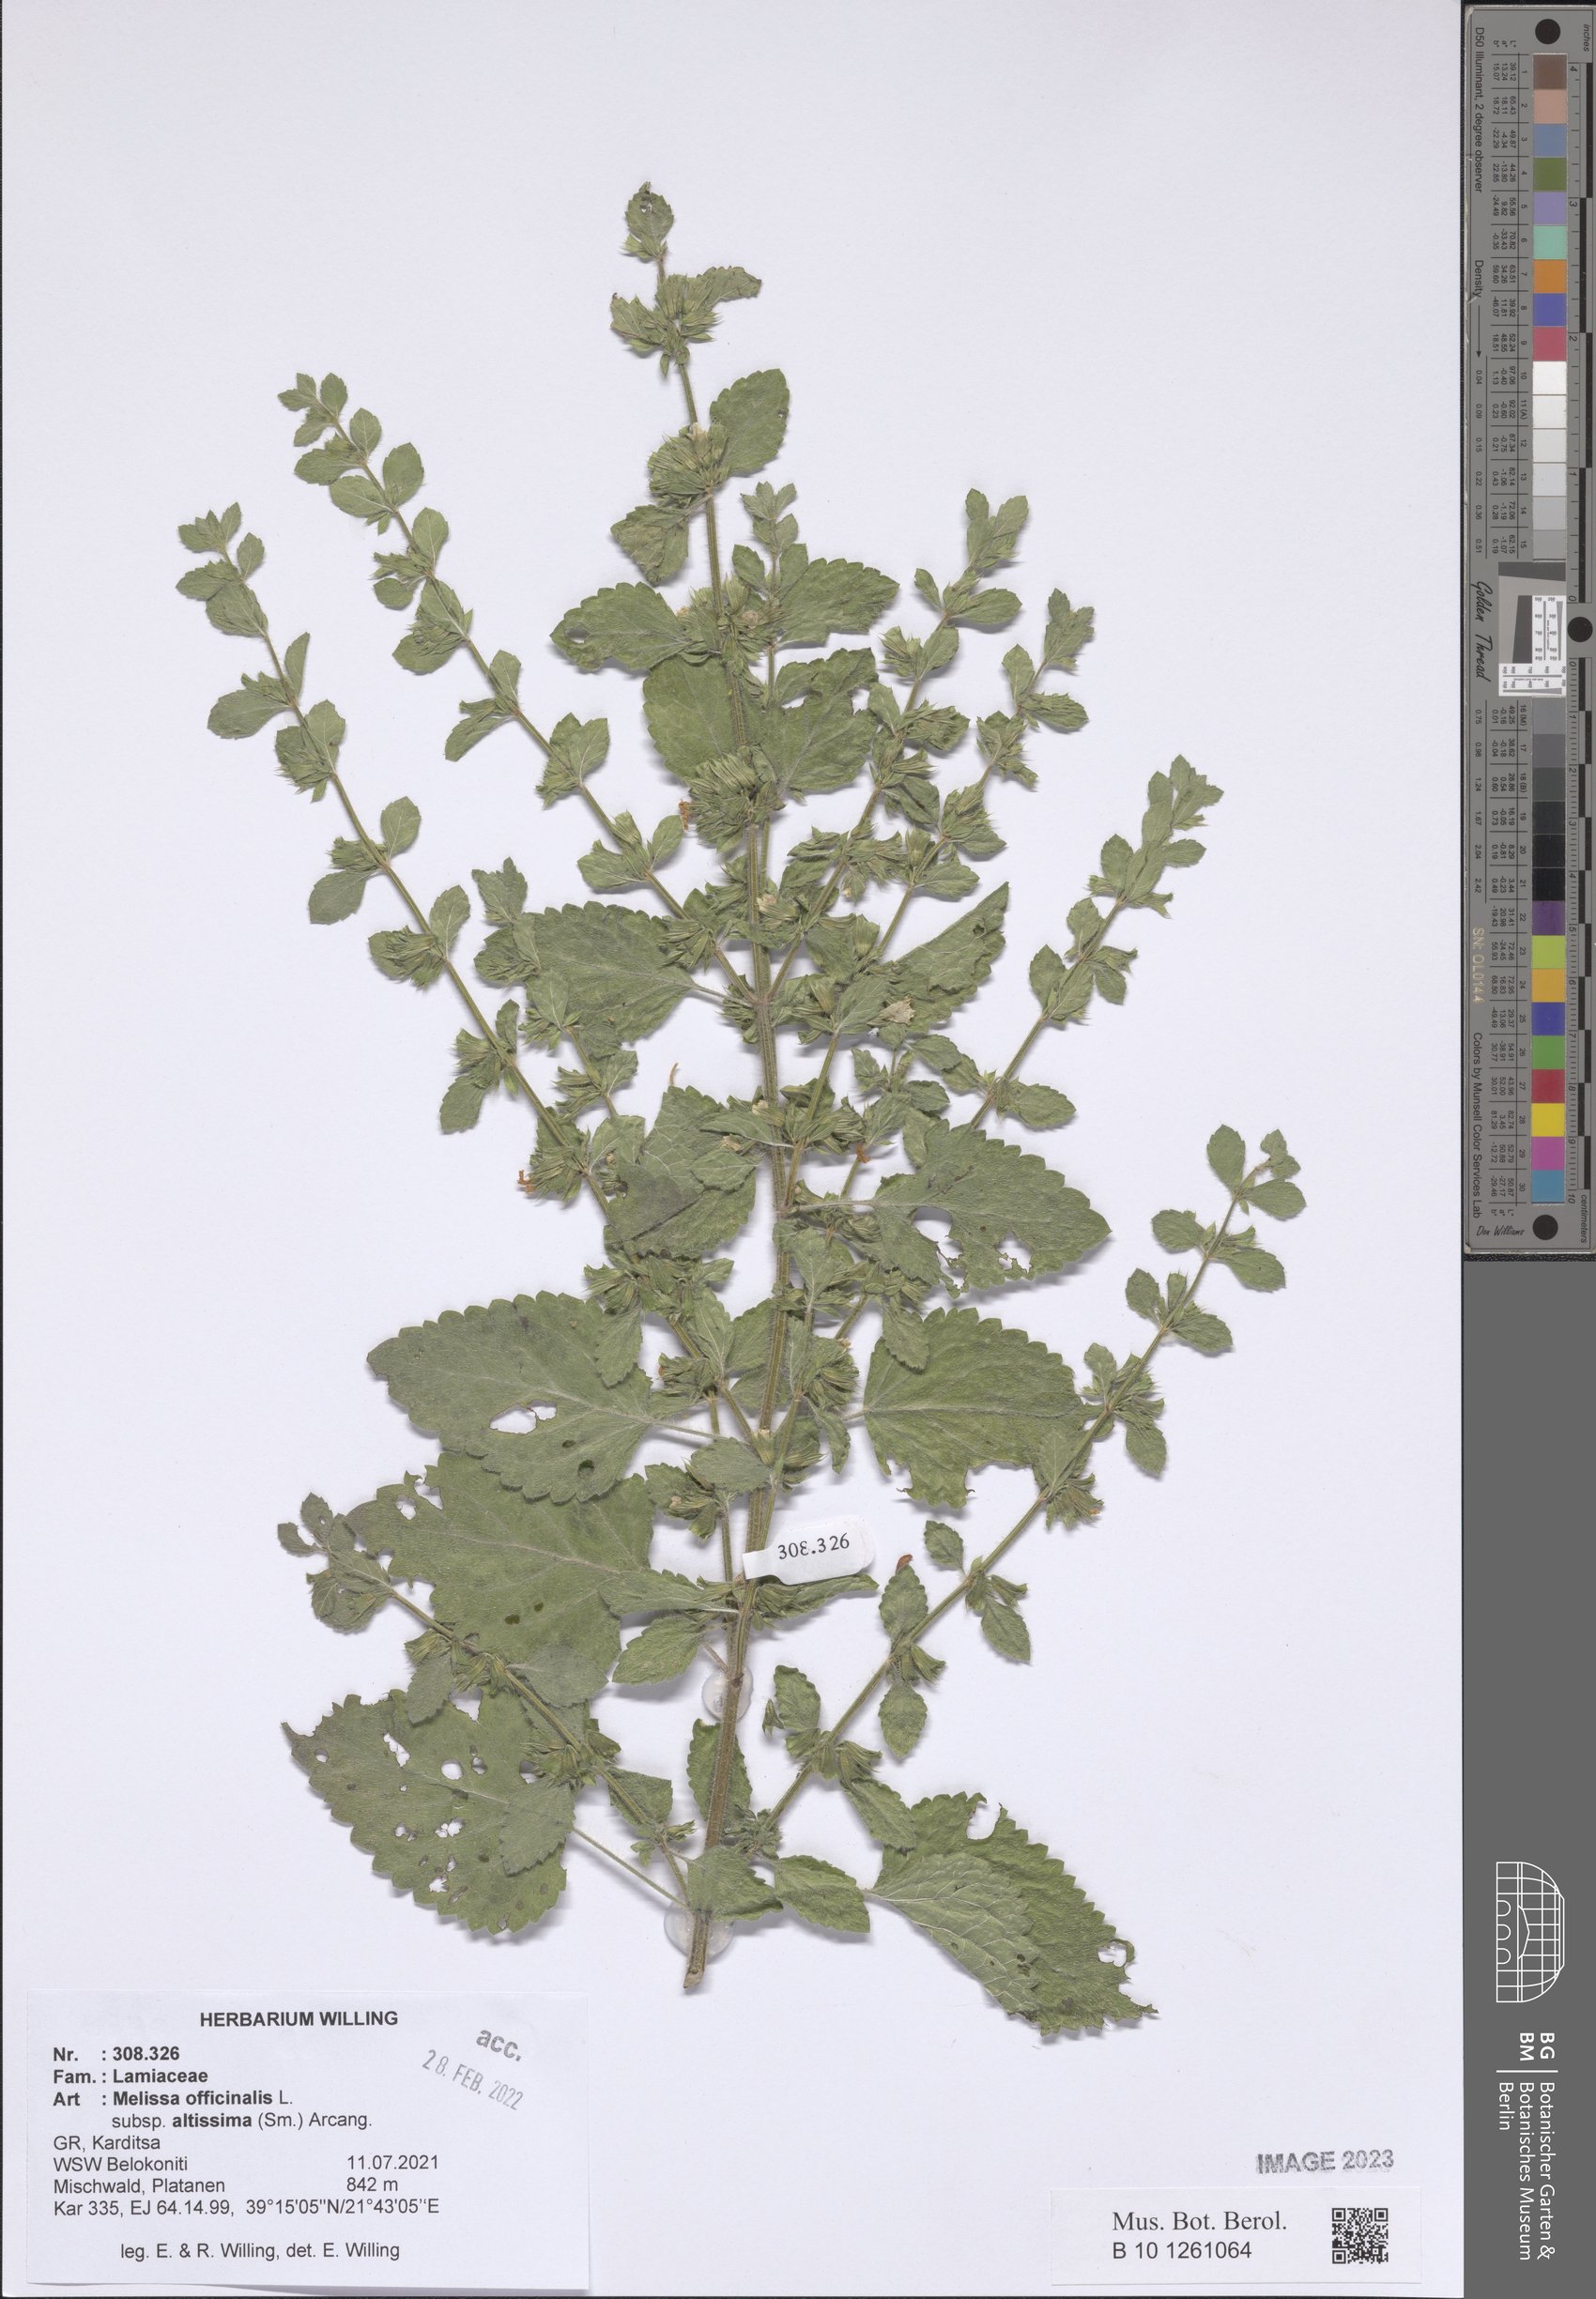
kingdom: Plantae
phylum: Tracheophyta
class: Magnoliopsida
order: Lamiales
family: Lamiaceae
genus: Melissa
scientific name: Melissa officinalis
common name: Balm
